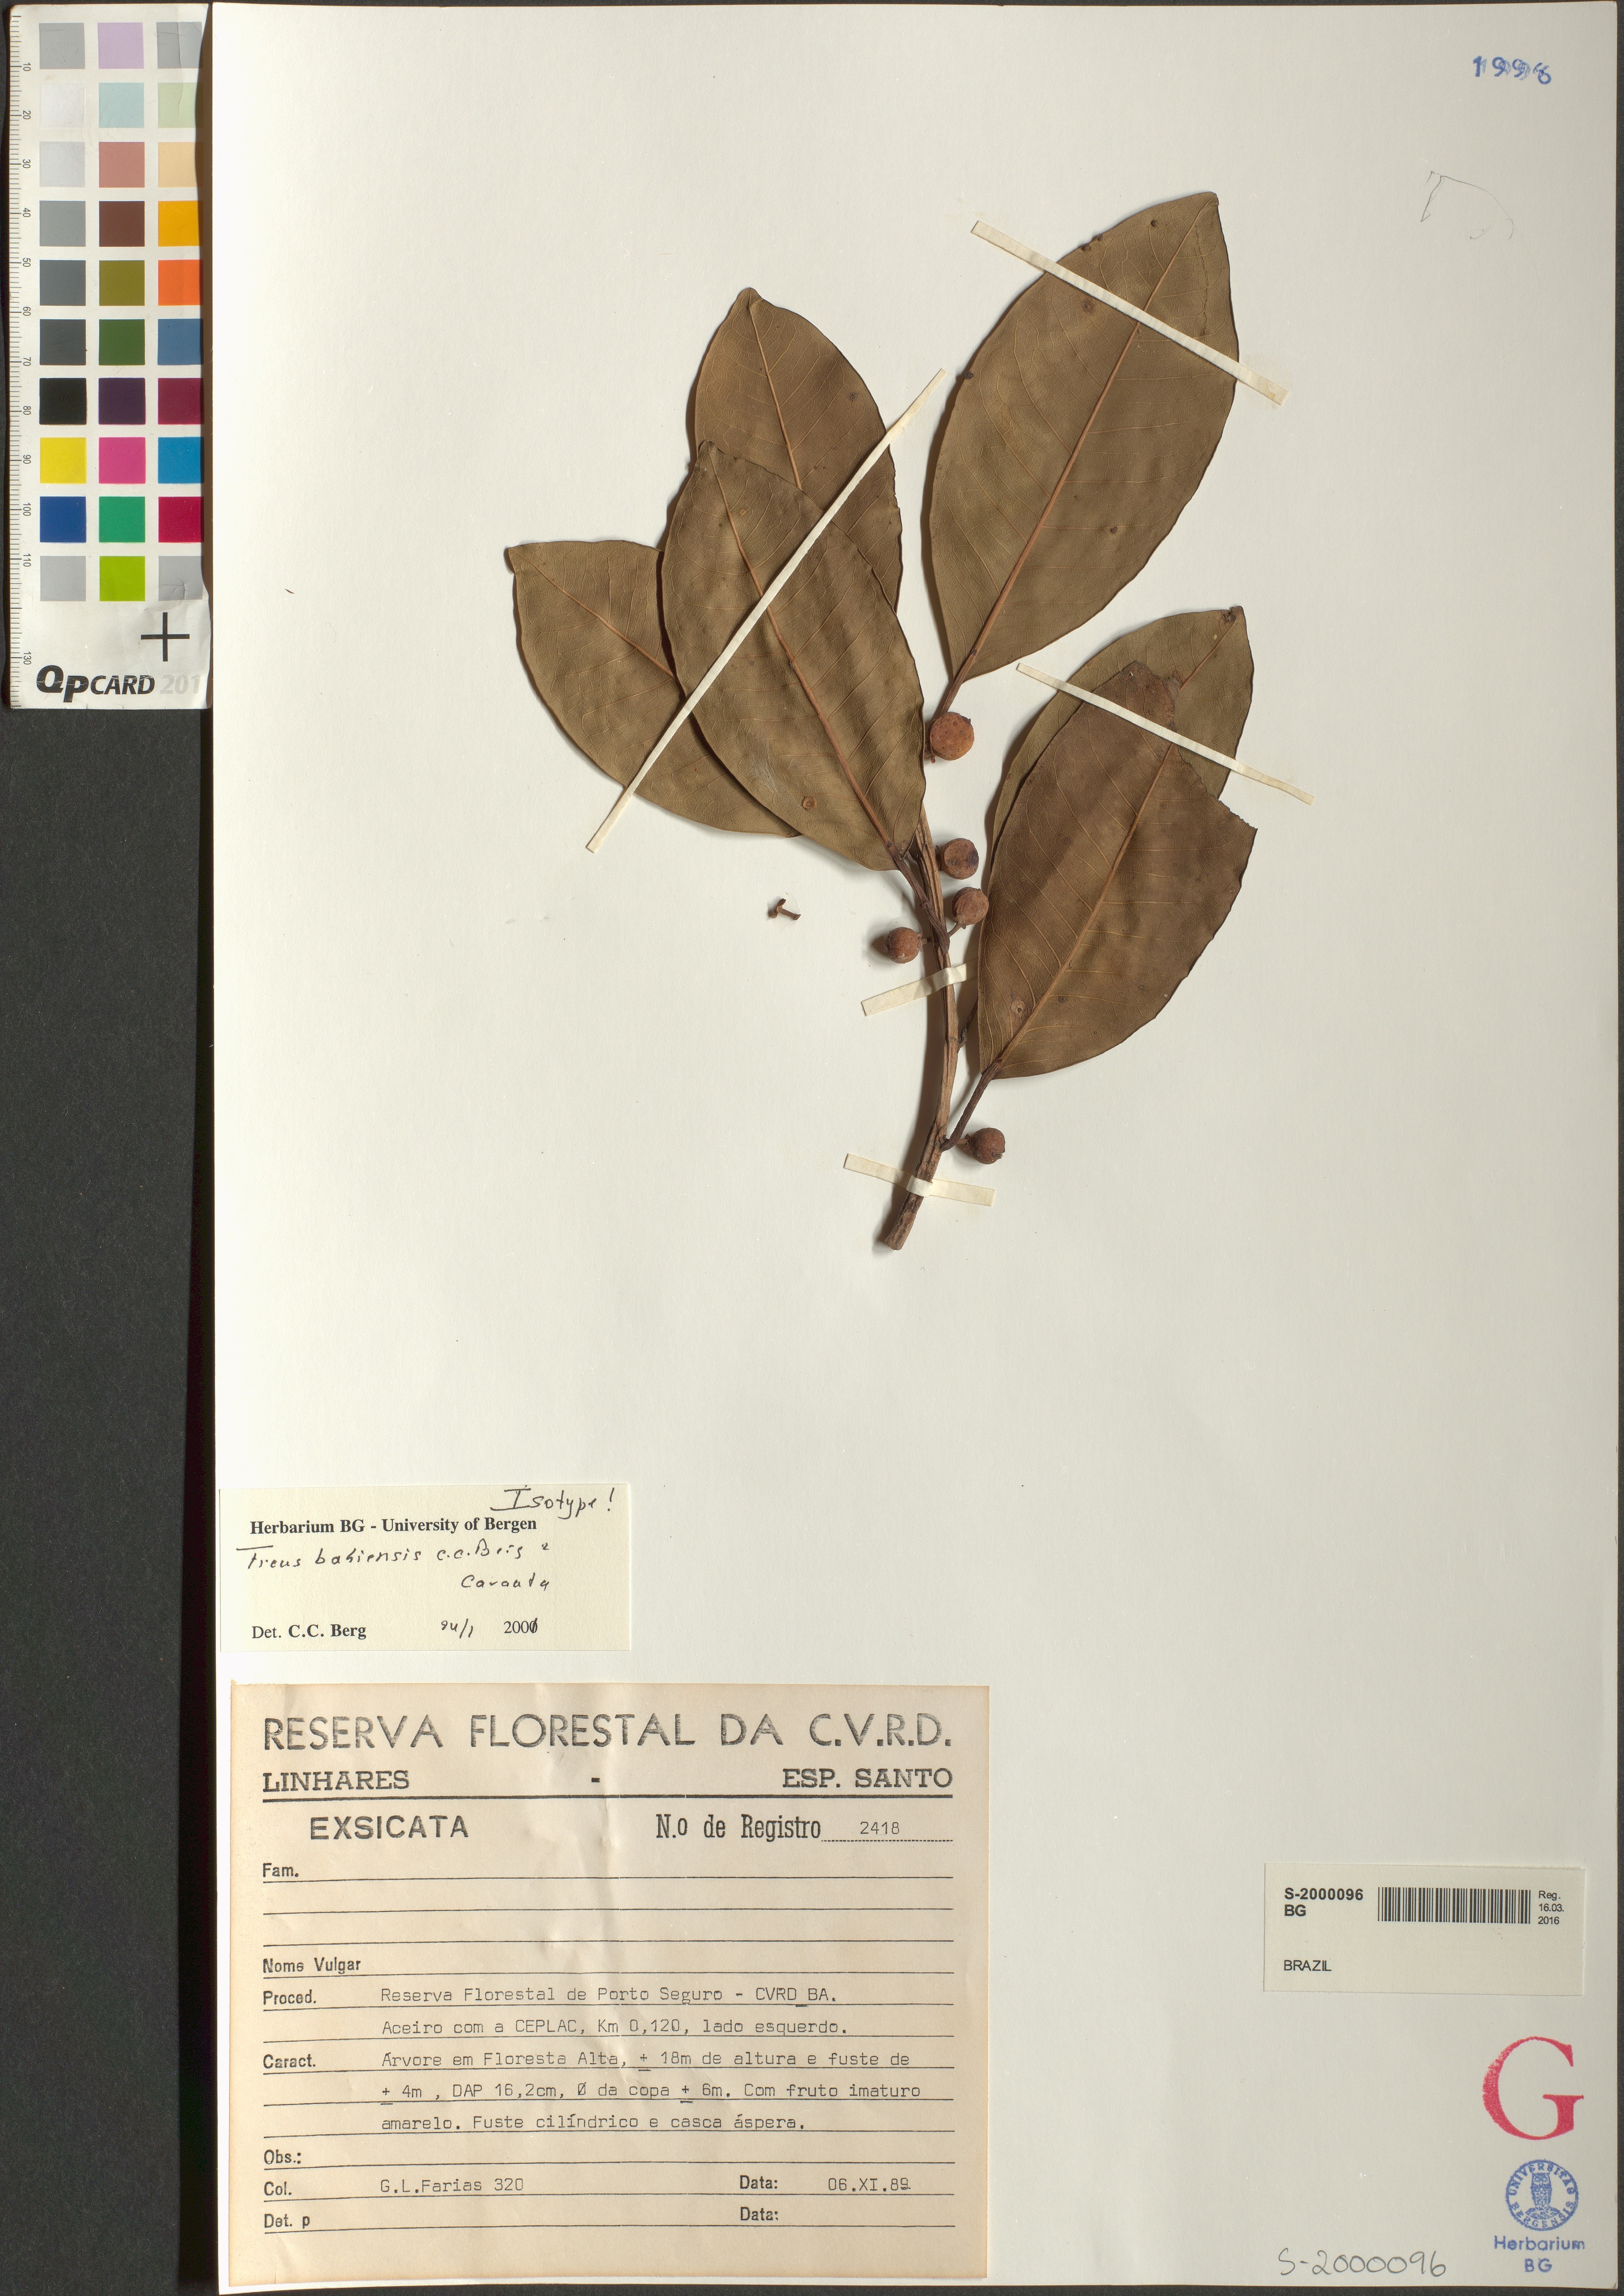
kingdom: Plantae
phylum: Tracheophyta
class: Magnoliopsida
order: Rosales
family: Moraceae
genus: Ficus
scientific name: Ficus bahiensis
